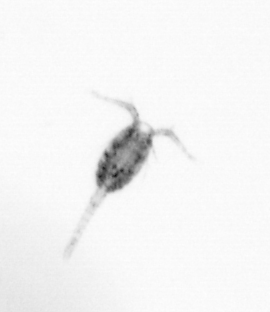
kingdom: Animalia
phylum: Arthropoda
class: Copepoda
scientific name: Copepoda
